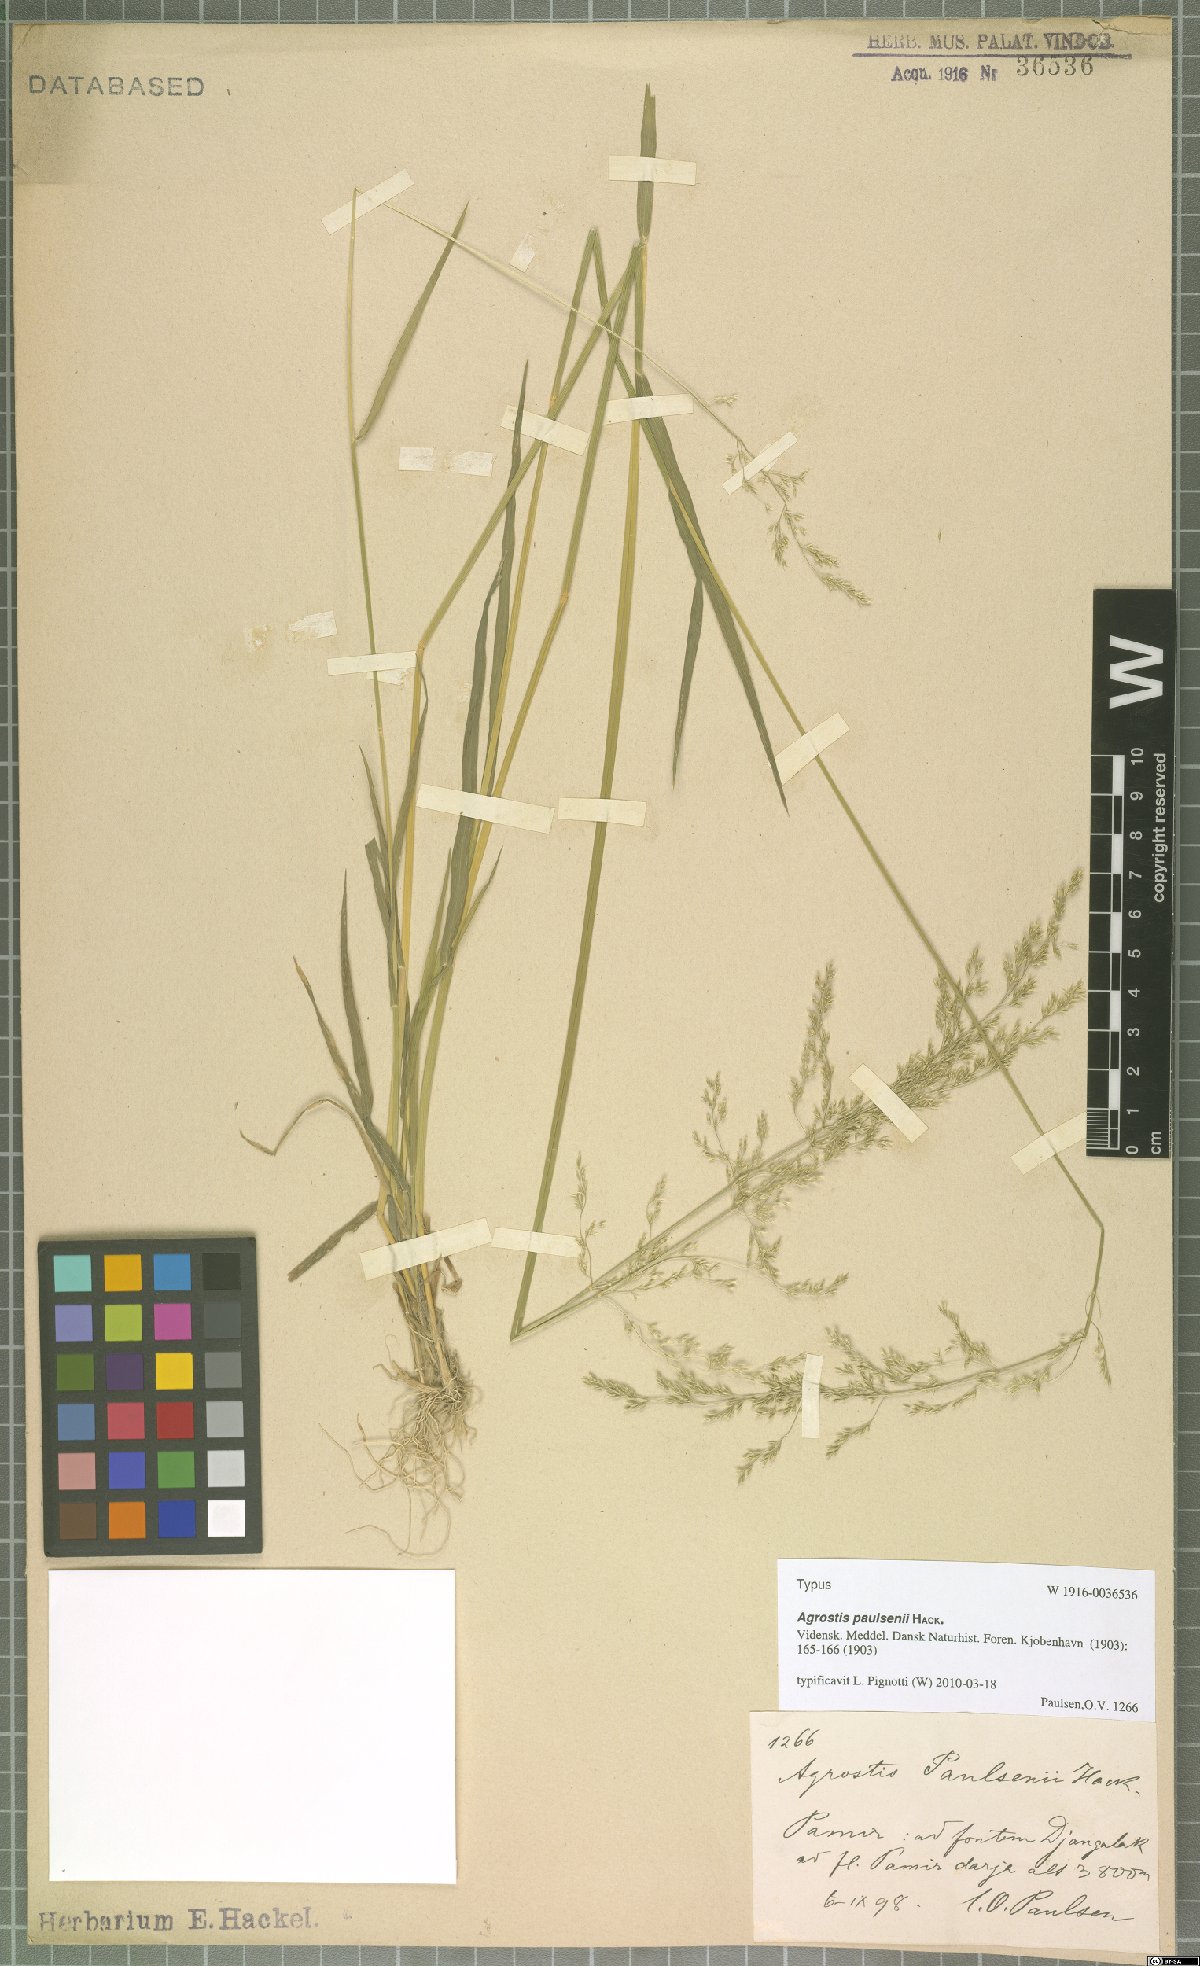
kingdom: Plantae
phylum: Tracheophyta
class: Liliopsida
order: Poales
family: Poaceae
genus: Agrostis
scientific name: Agrostis paulsenii
